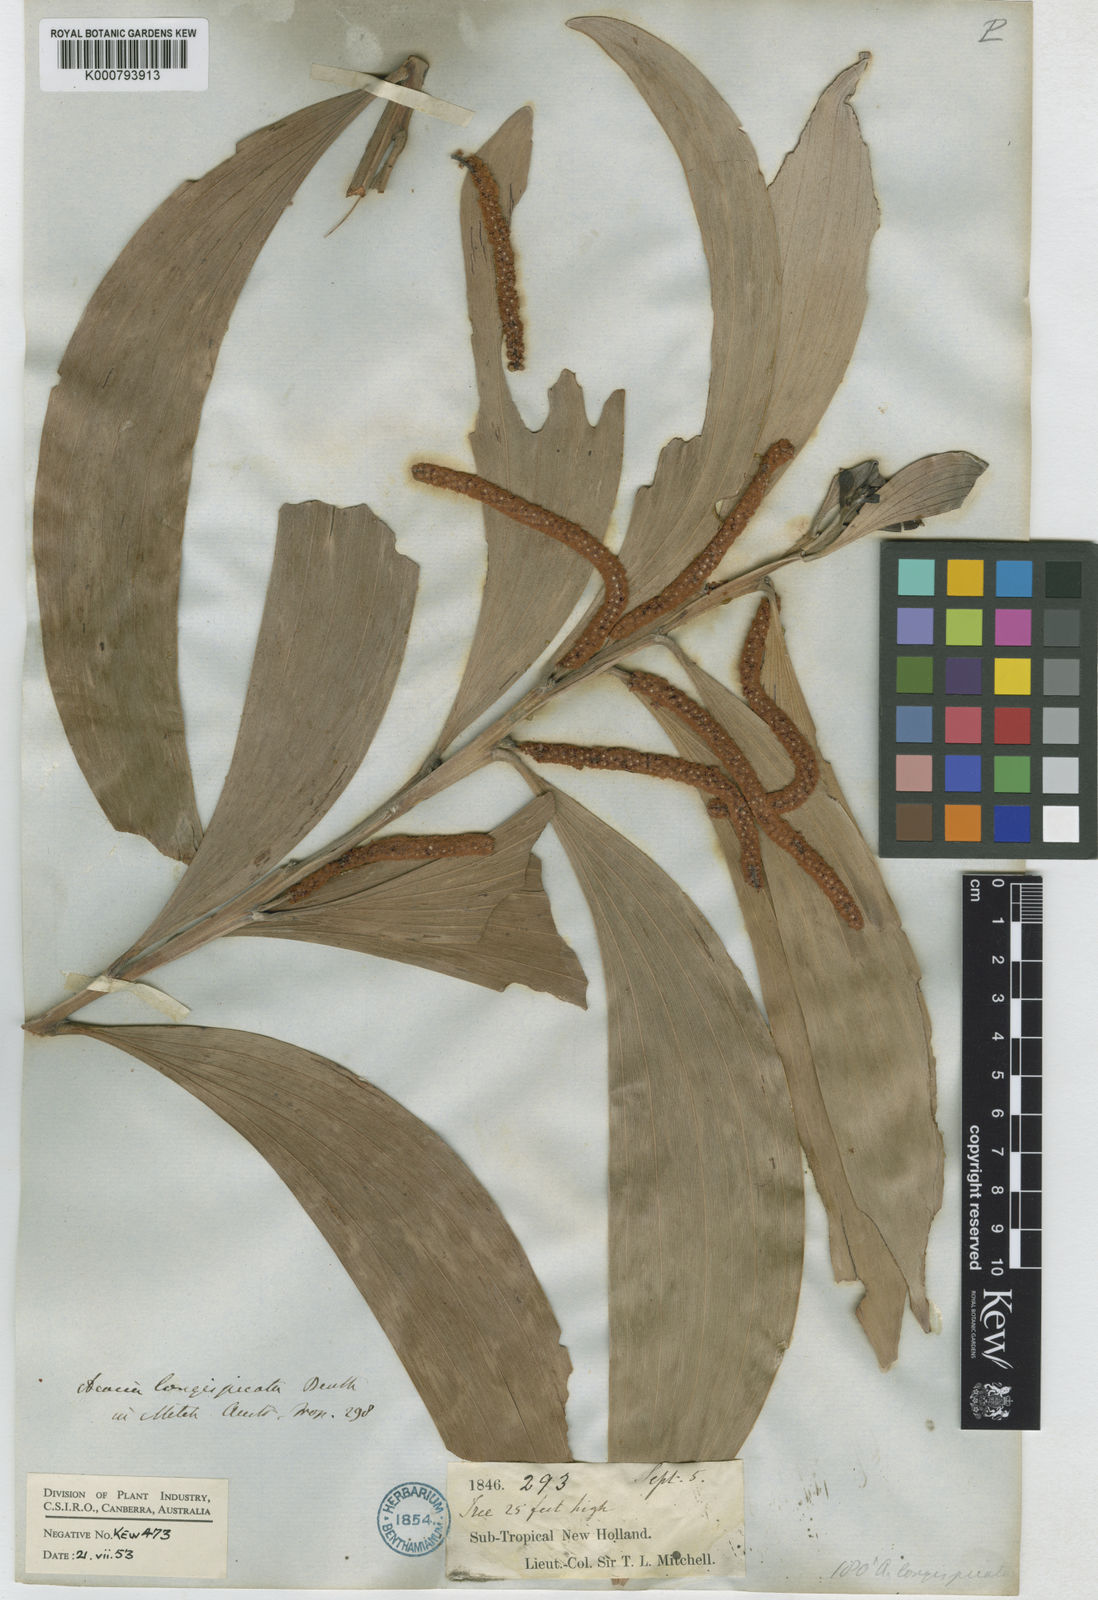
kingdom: Plantae
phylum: Tracheophyta
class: Magnoliopsida
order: Fabales
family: Fabaceae
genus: Acacia
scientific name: Acacia longispicata
